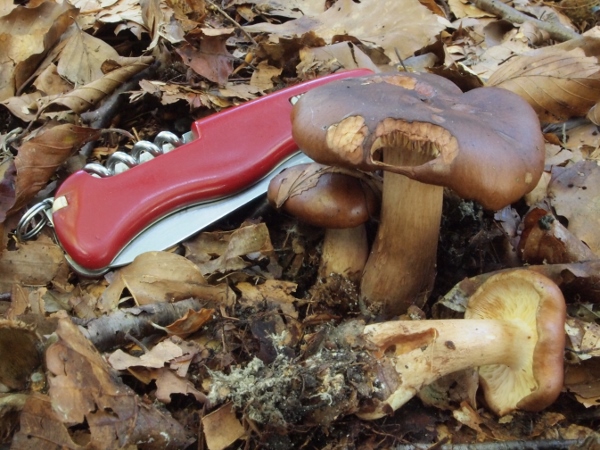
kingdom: Fungi
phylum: Basidiomycota
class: Agaricomycetes
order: Agaricales
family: Tricholomataceae
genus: Tricholoma
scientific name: Tricholoma ustale
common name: sveden ridderhat
